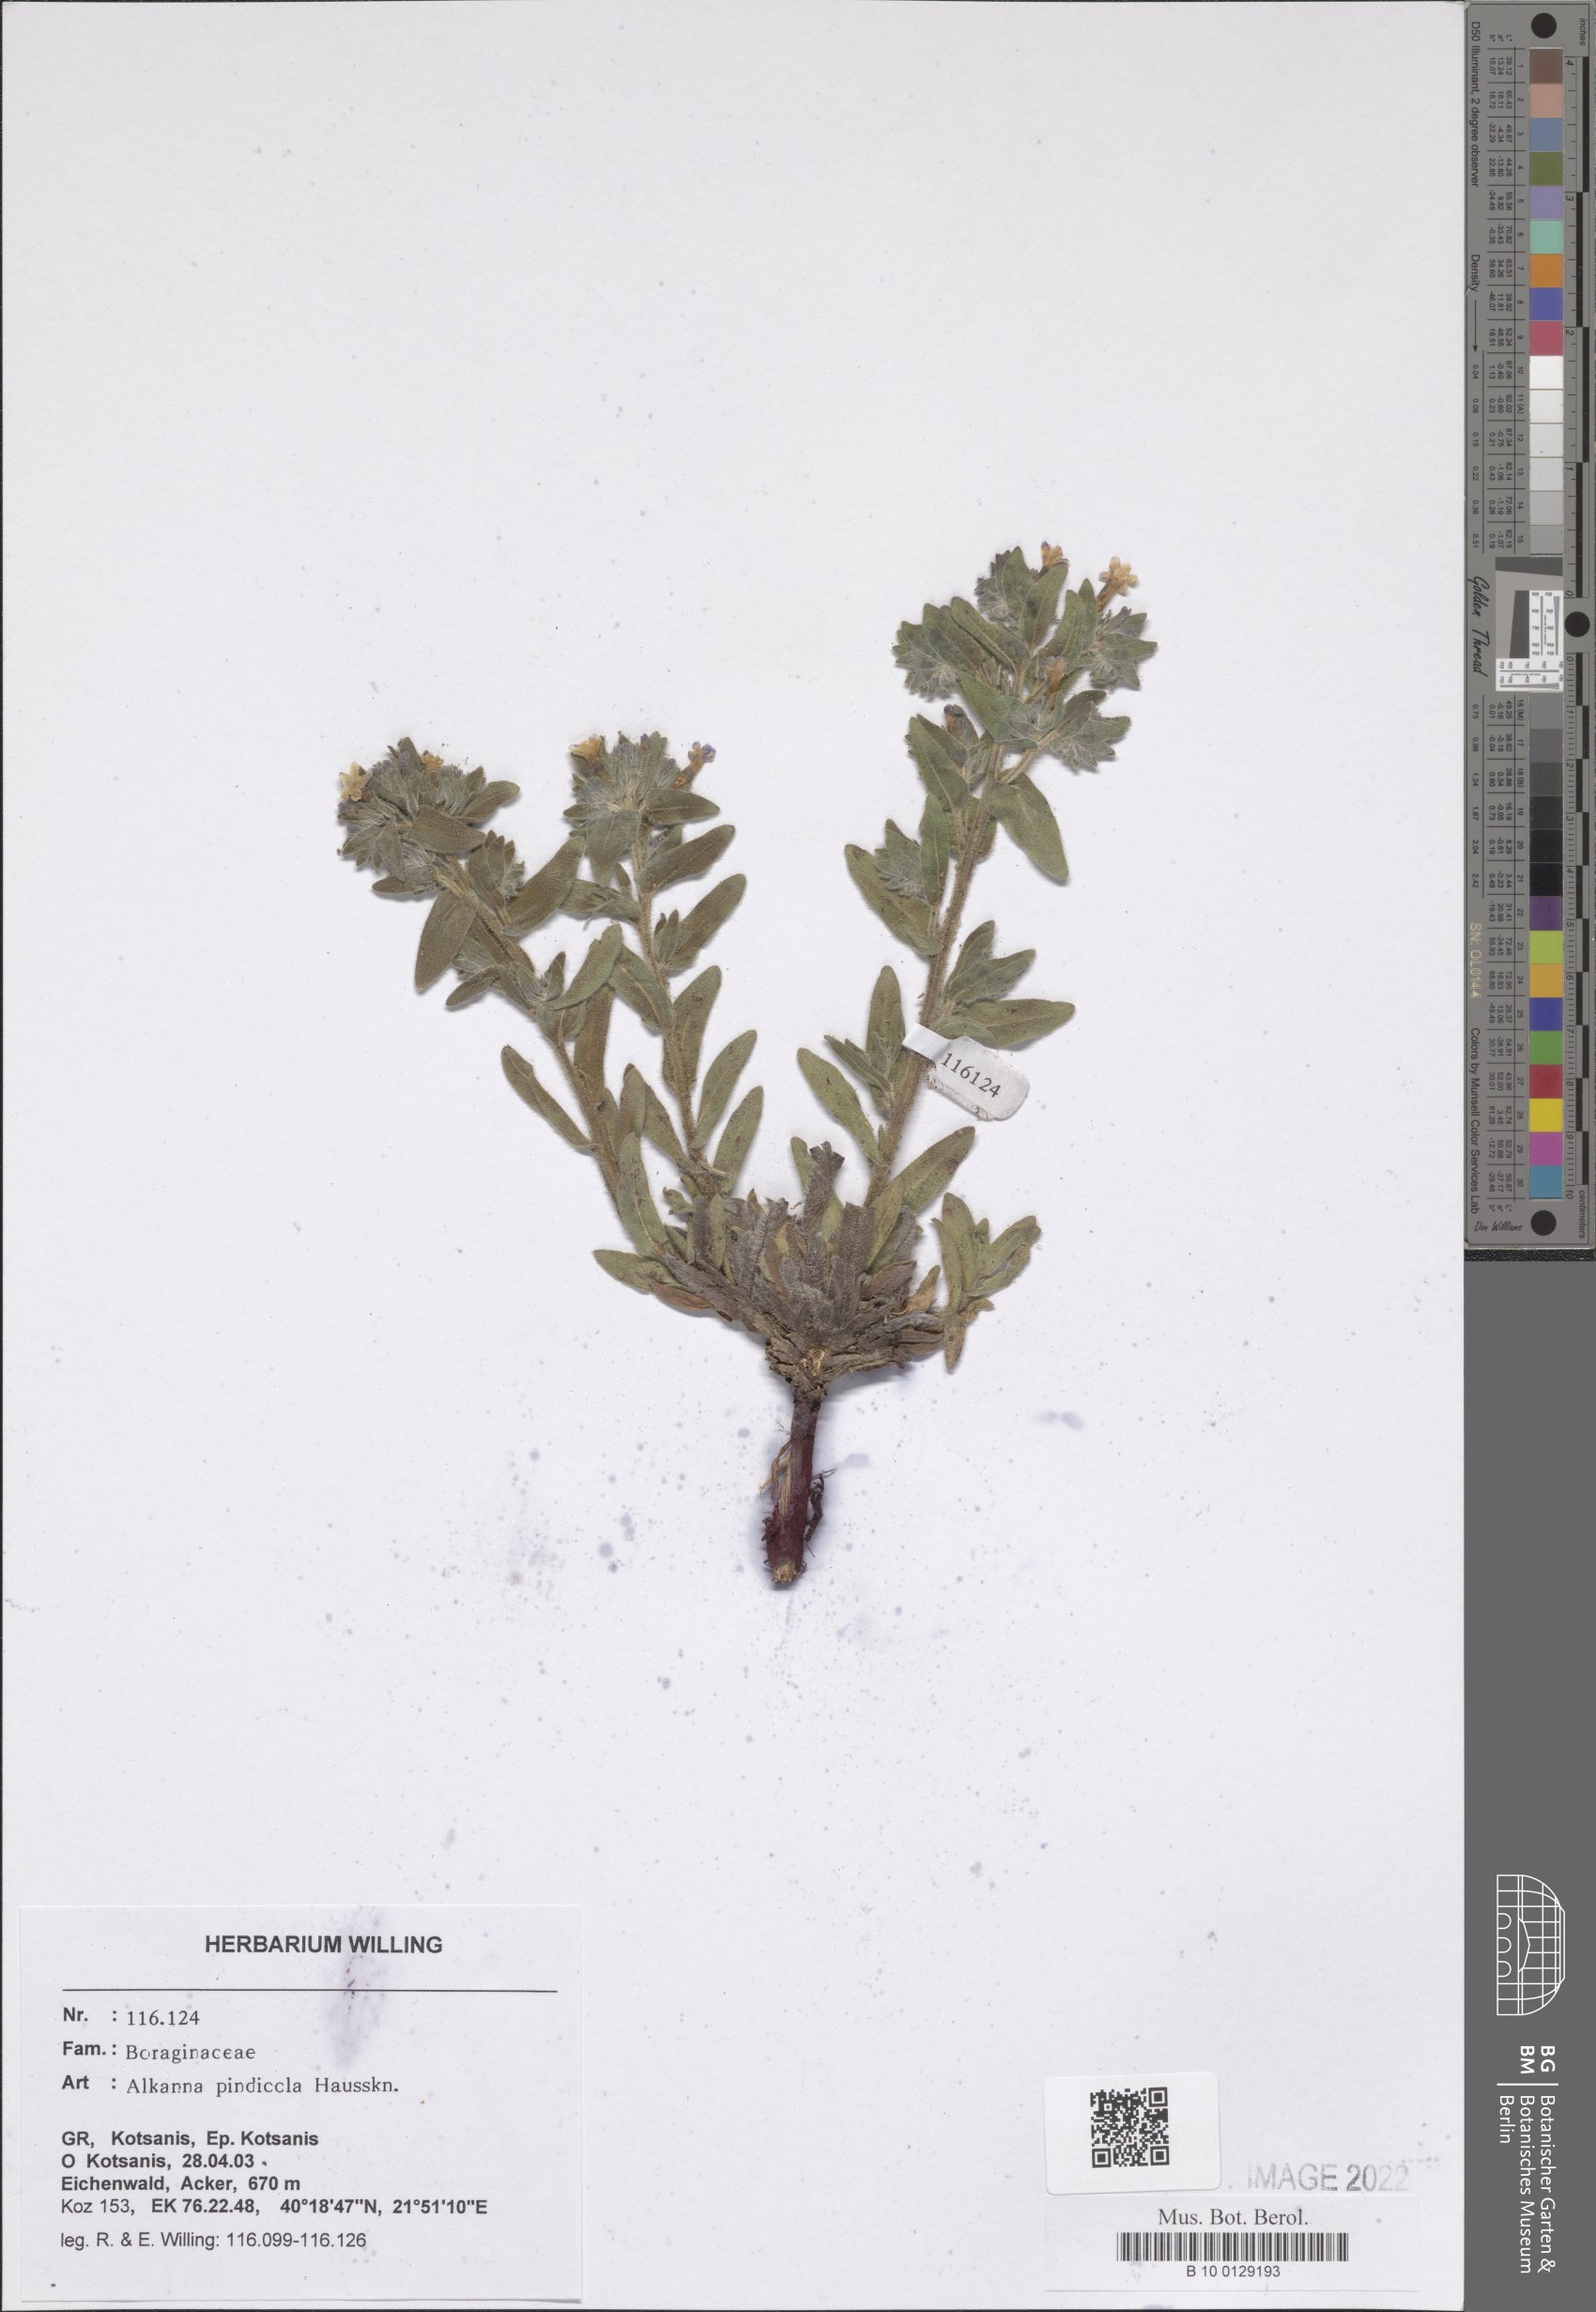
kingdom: Plantae
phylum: Tracheophyta
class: Magnoliopsida
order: Boraginales
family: Boraginaceae
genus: Alkanna
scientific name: Alkanna pindicola
